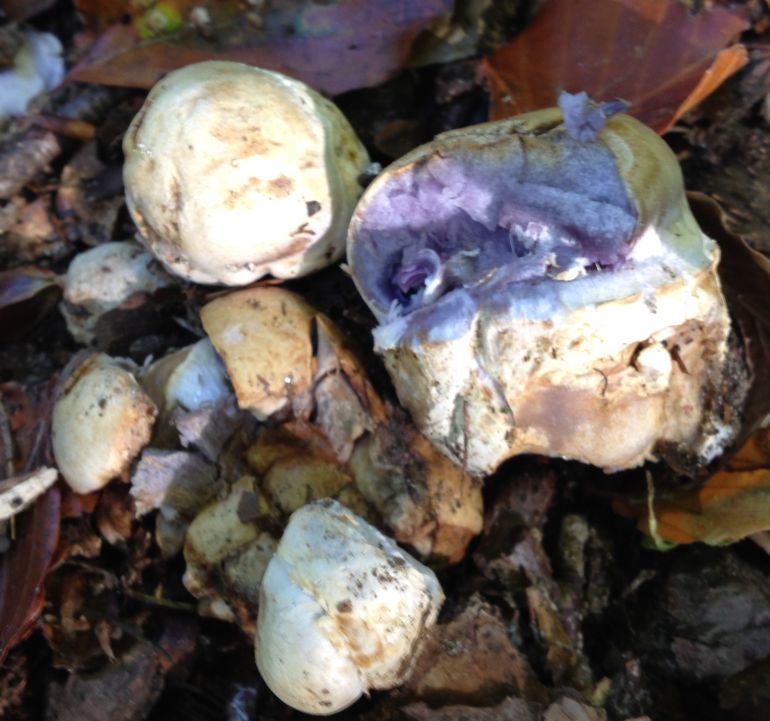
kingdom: Fungi
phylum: Basidiomycota
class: Agaricomycetes
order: Agaricales
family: Cortinariaceae
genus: Cortinarius
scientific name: Cortinarius anserinus
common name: bøge-slørhat
